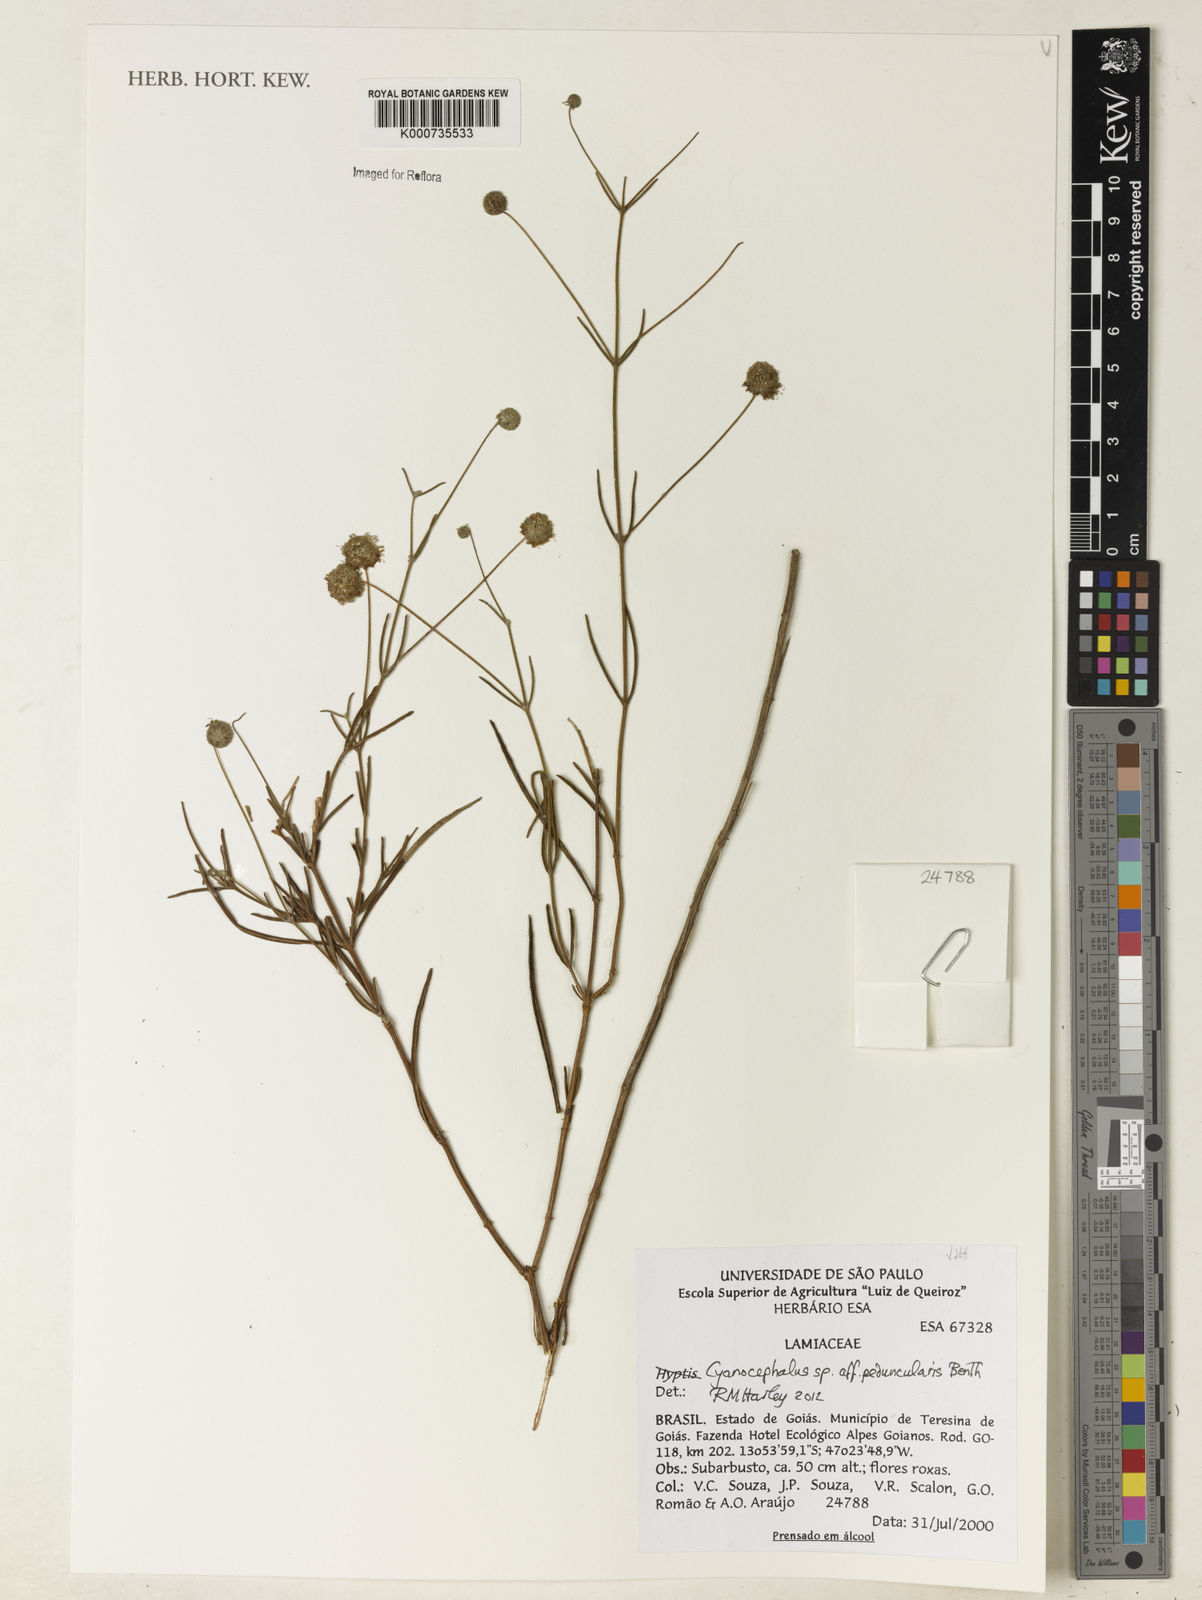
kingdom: Plantae
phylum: Tracheophyta
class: Magnoliopsida
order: Lamiales
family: Lamiaceae
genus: Cyanocephalus
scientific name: Cyanocephalus
